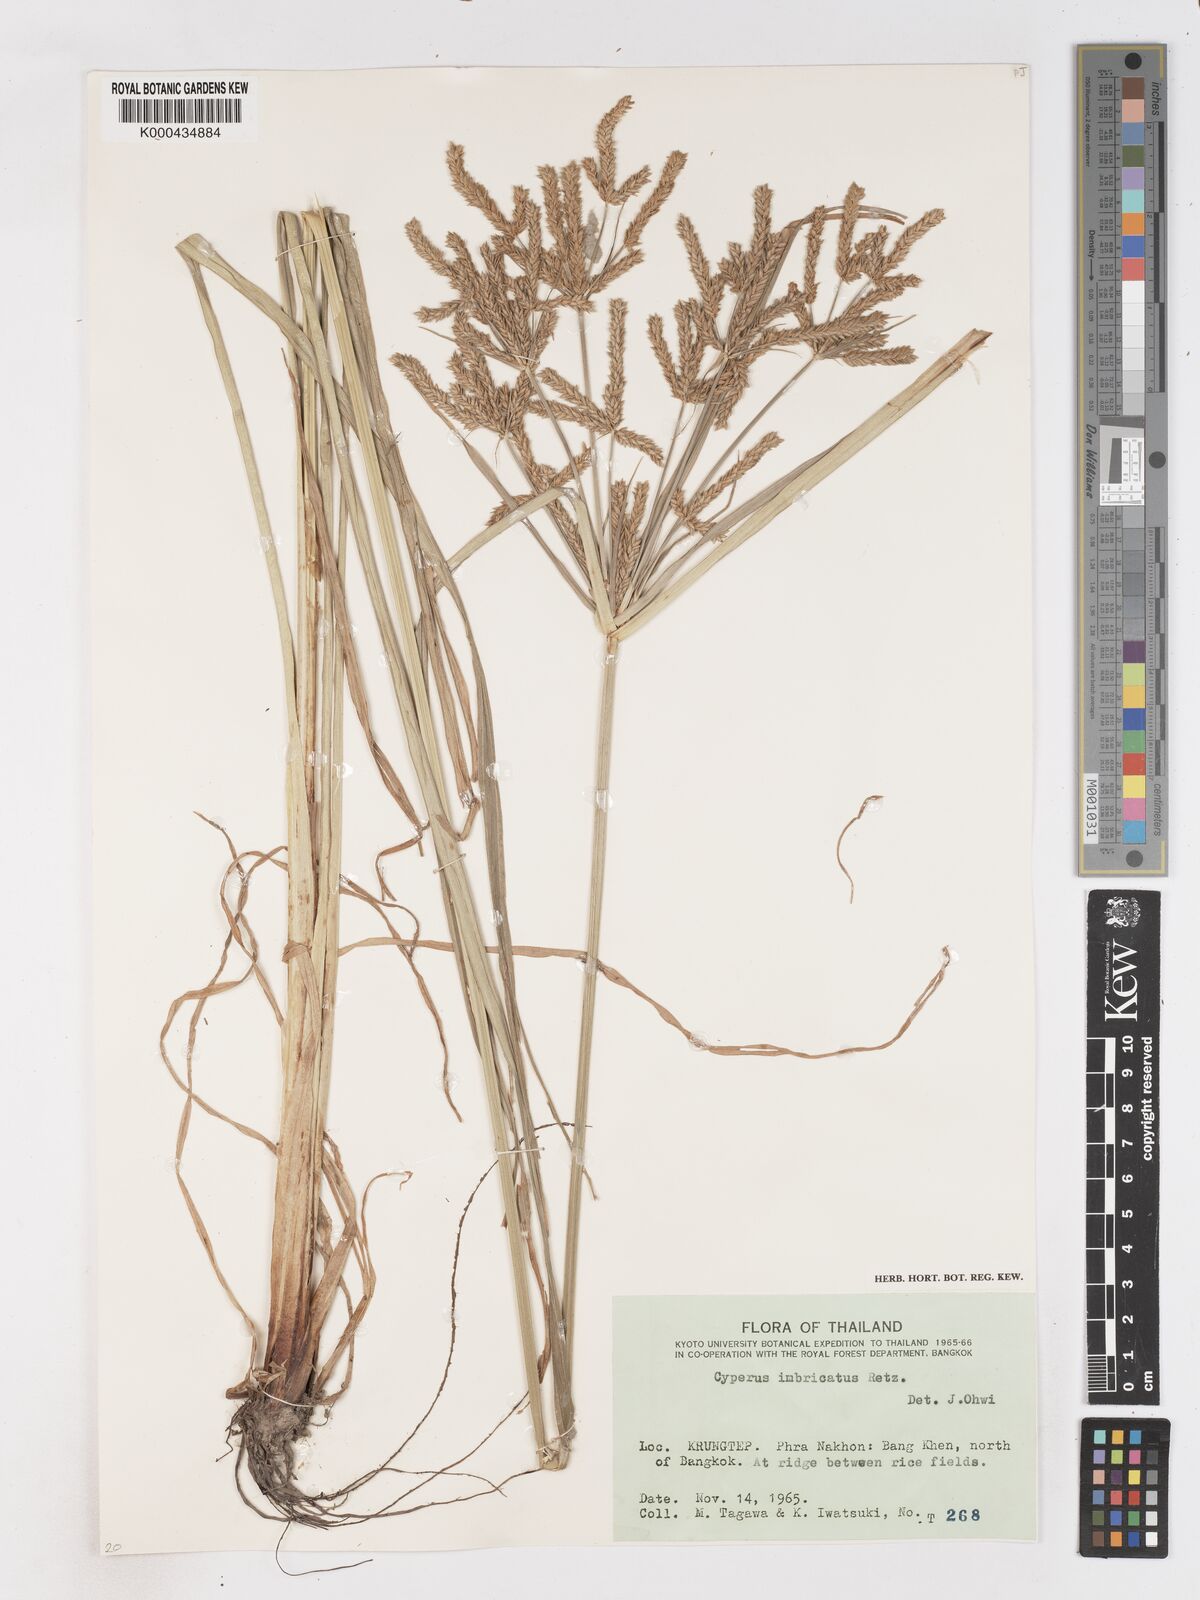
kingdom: Plantae
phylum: Tracheophyta
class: Liliopsida
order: Poales
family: Cyperaceae
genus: Cyperus
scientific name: Cyperus imbricatus
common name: Shingle flatsedge
